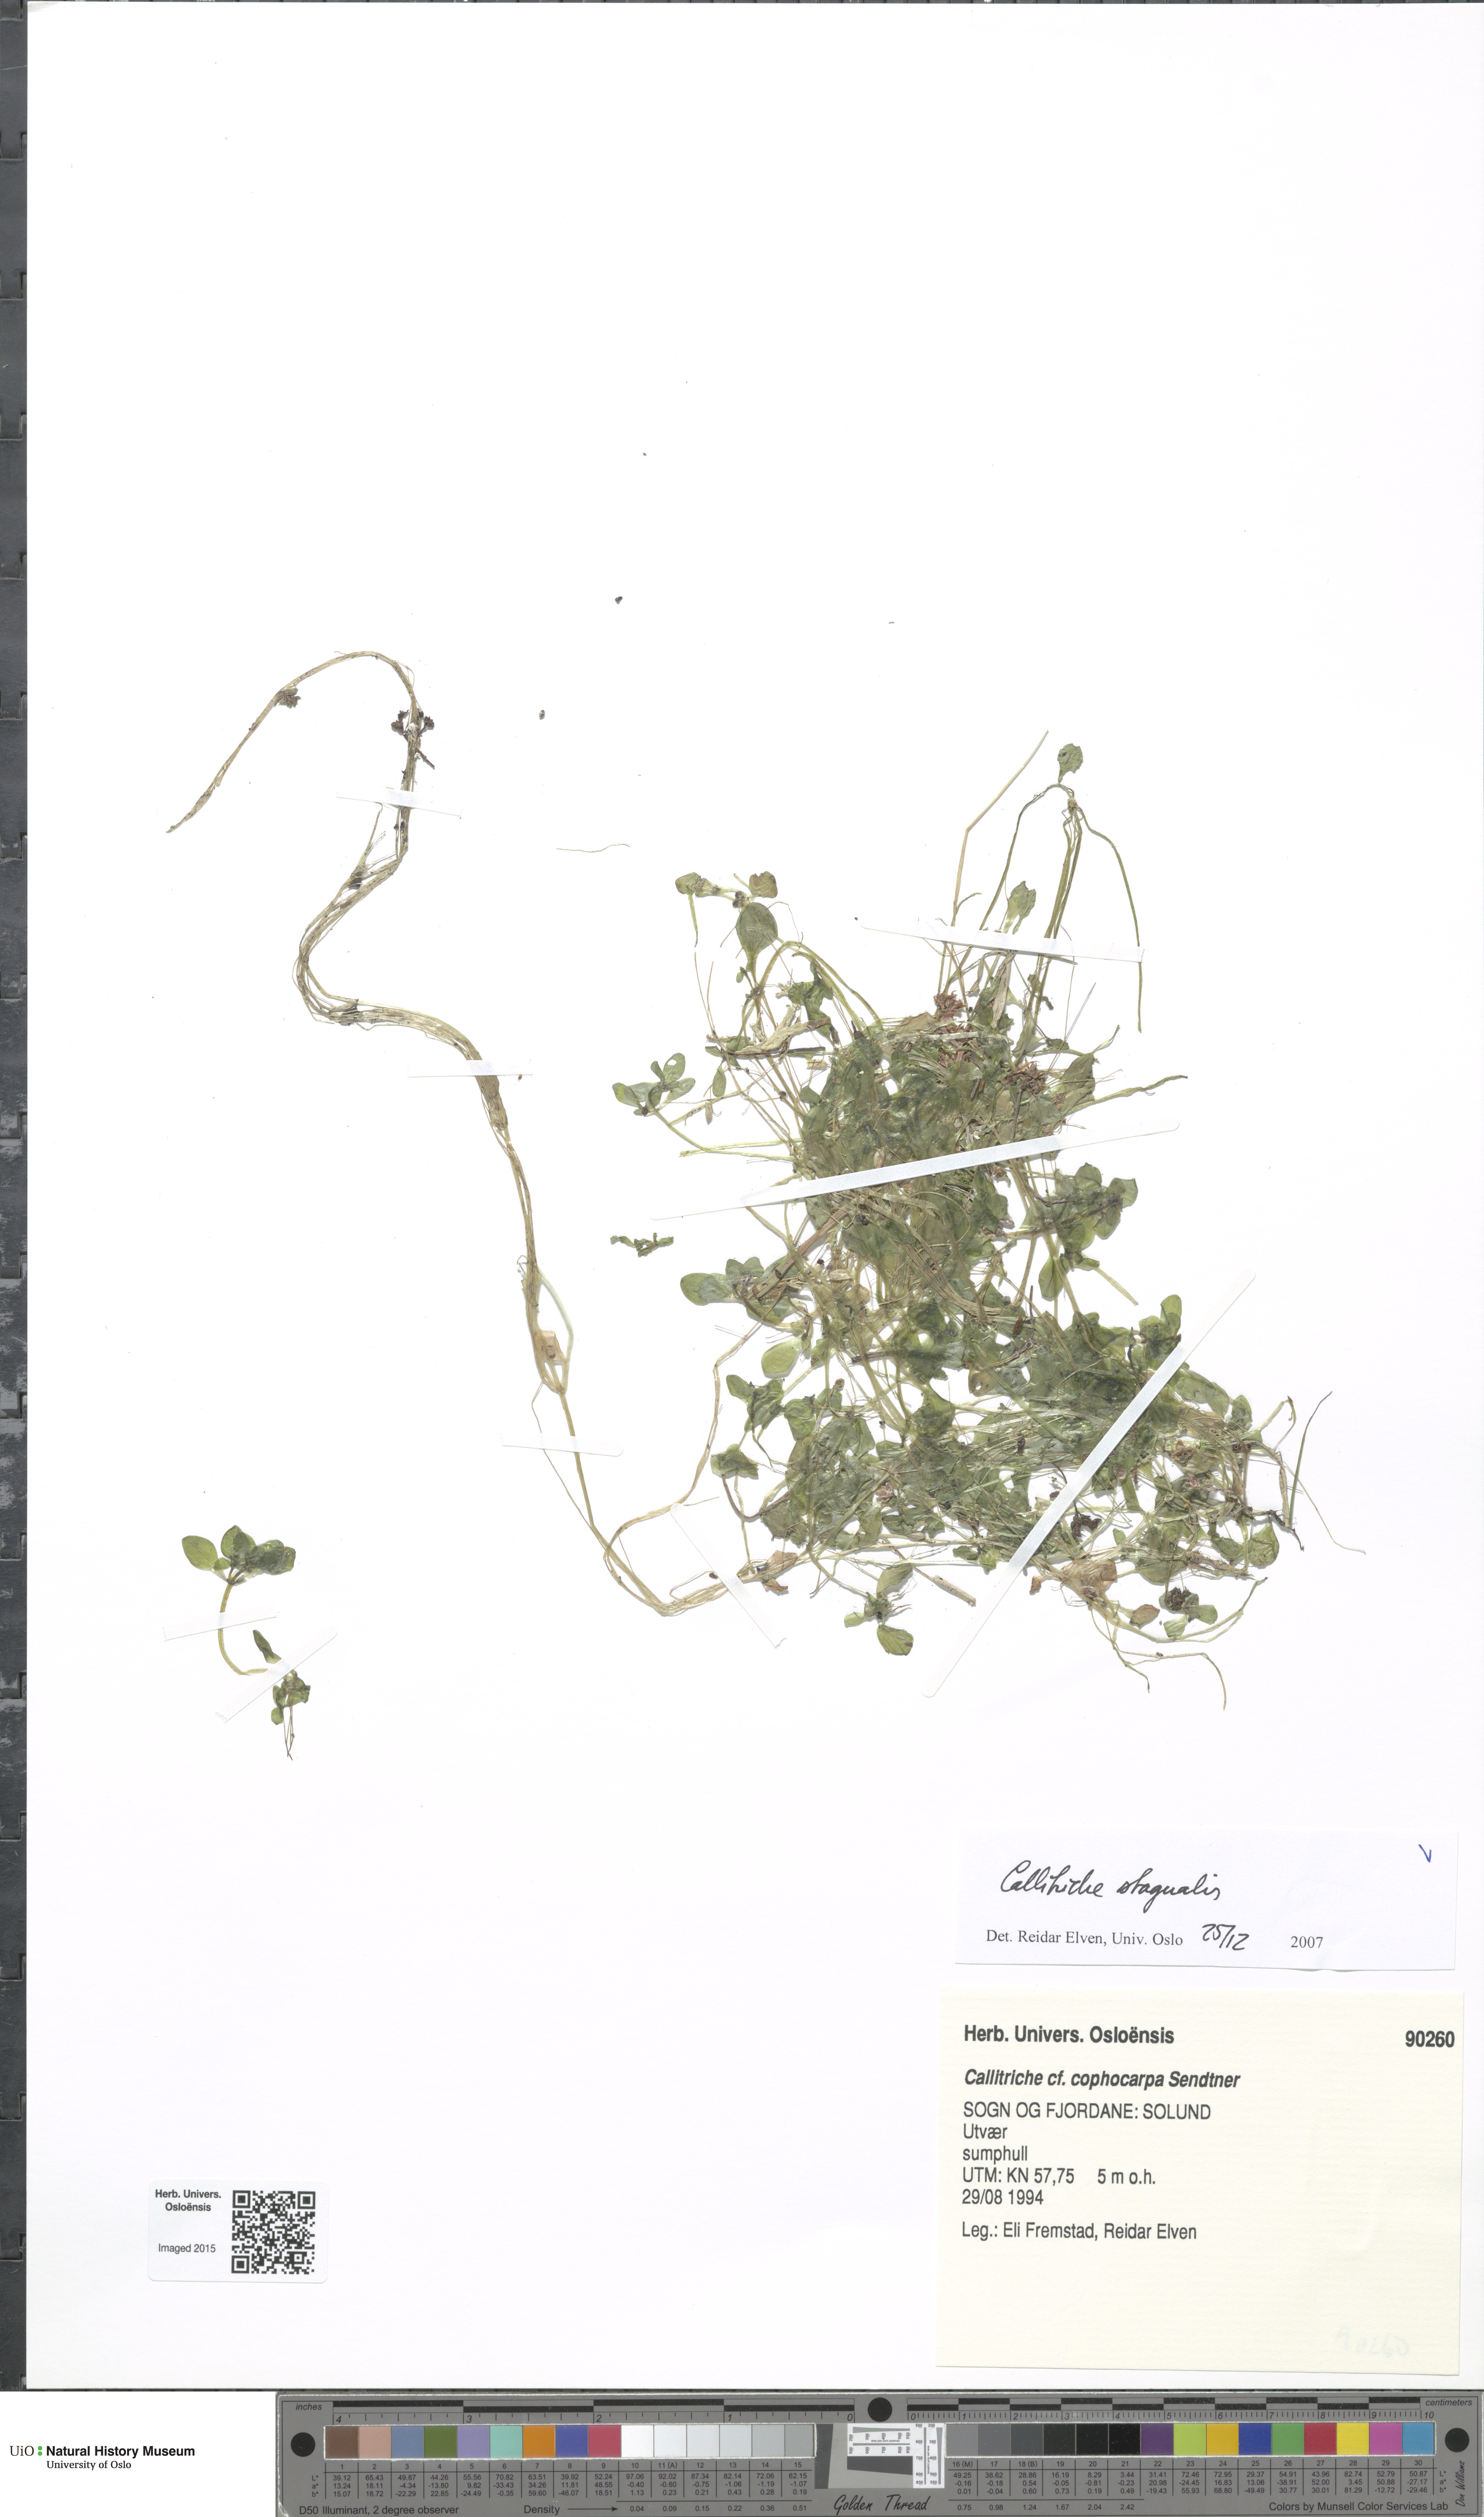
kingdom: Plantae
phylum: Tracheophyta
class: Magnoliopsida
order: Lamiales
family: Plantaginaceae
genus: Callitriche
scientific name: Callitriche stagnalis
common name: Common water-starwort
